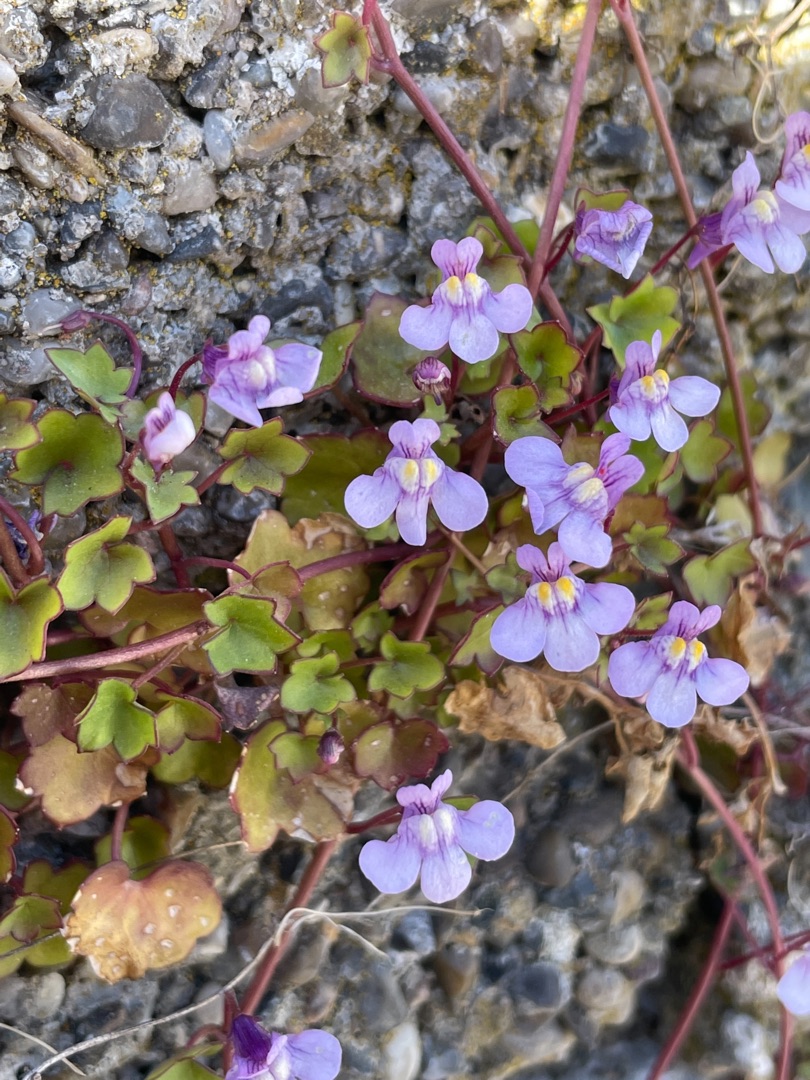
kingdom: Plantae
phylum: Tracheophyta
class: Magnoliopsida
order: Lamiales
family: Plantaginaceae
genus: Cymbalaria
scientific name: Cymbalaria muralis
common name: Vedbend-torskemund
